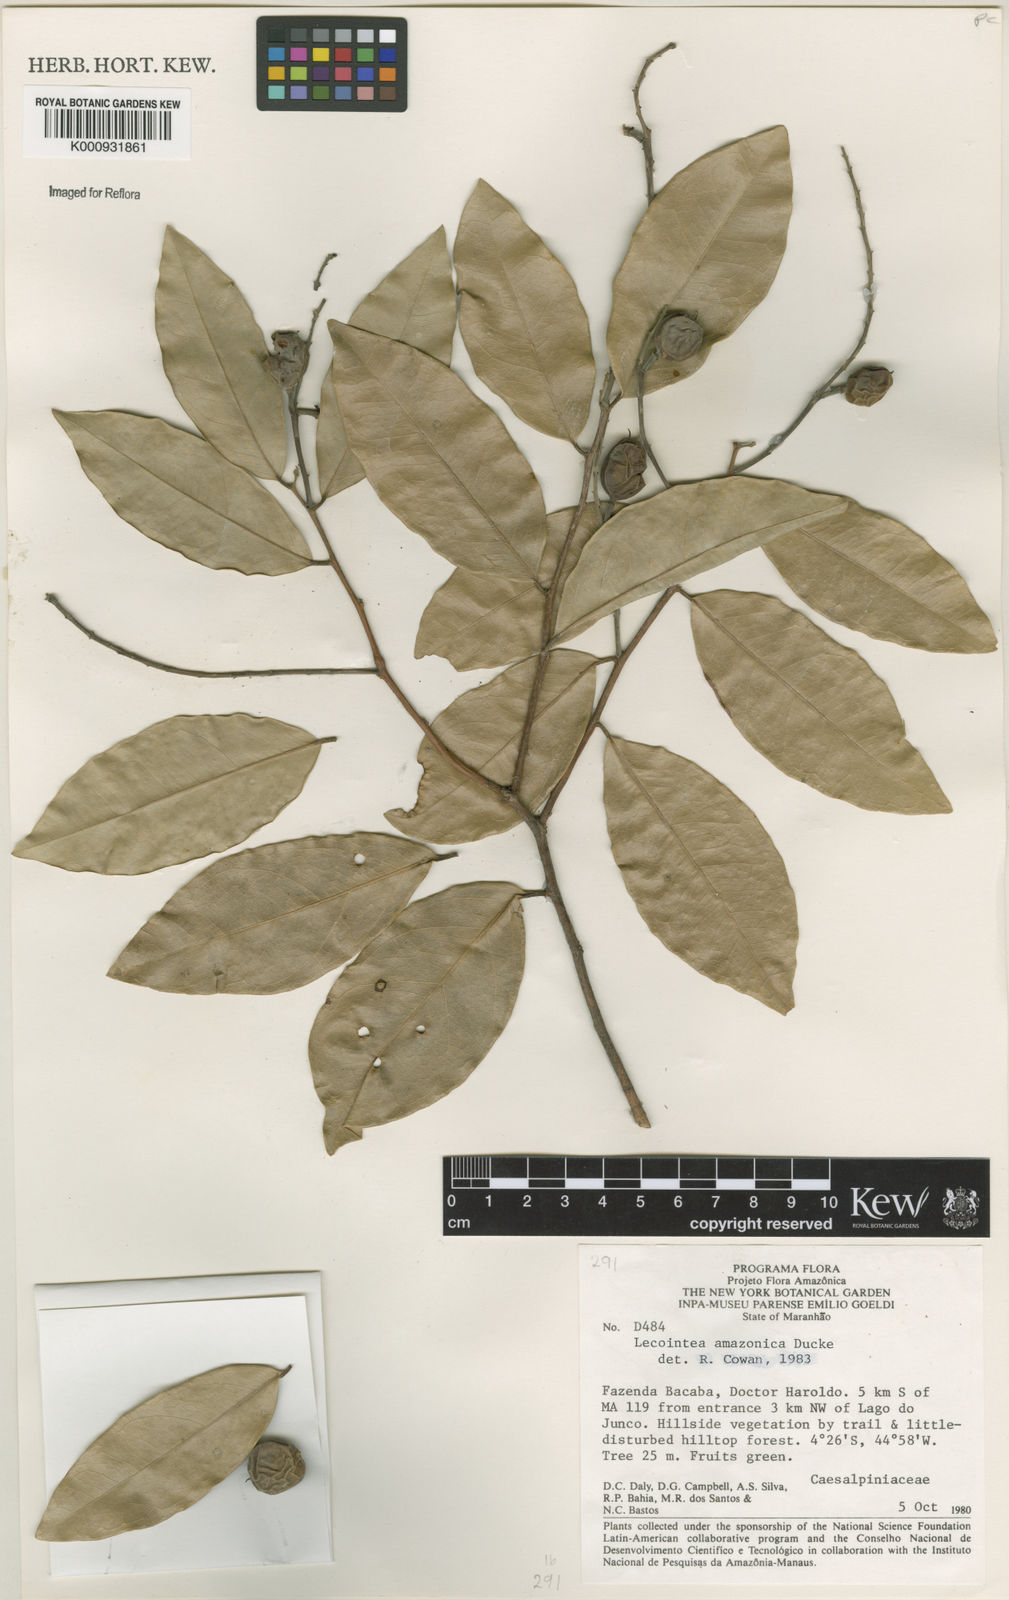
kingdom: Plantae
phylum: Tracheophyta
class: Magnoliopsida
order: Fabales
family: Fabaceae
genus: Lecointea
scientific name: Lecointea amazonica
